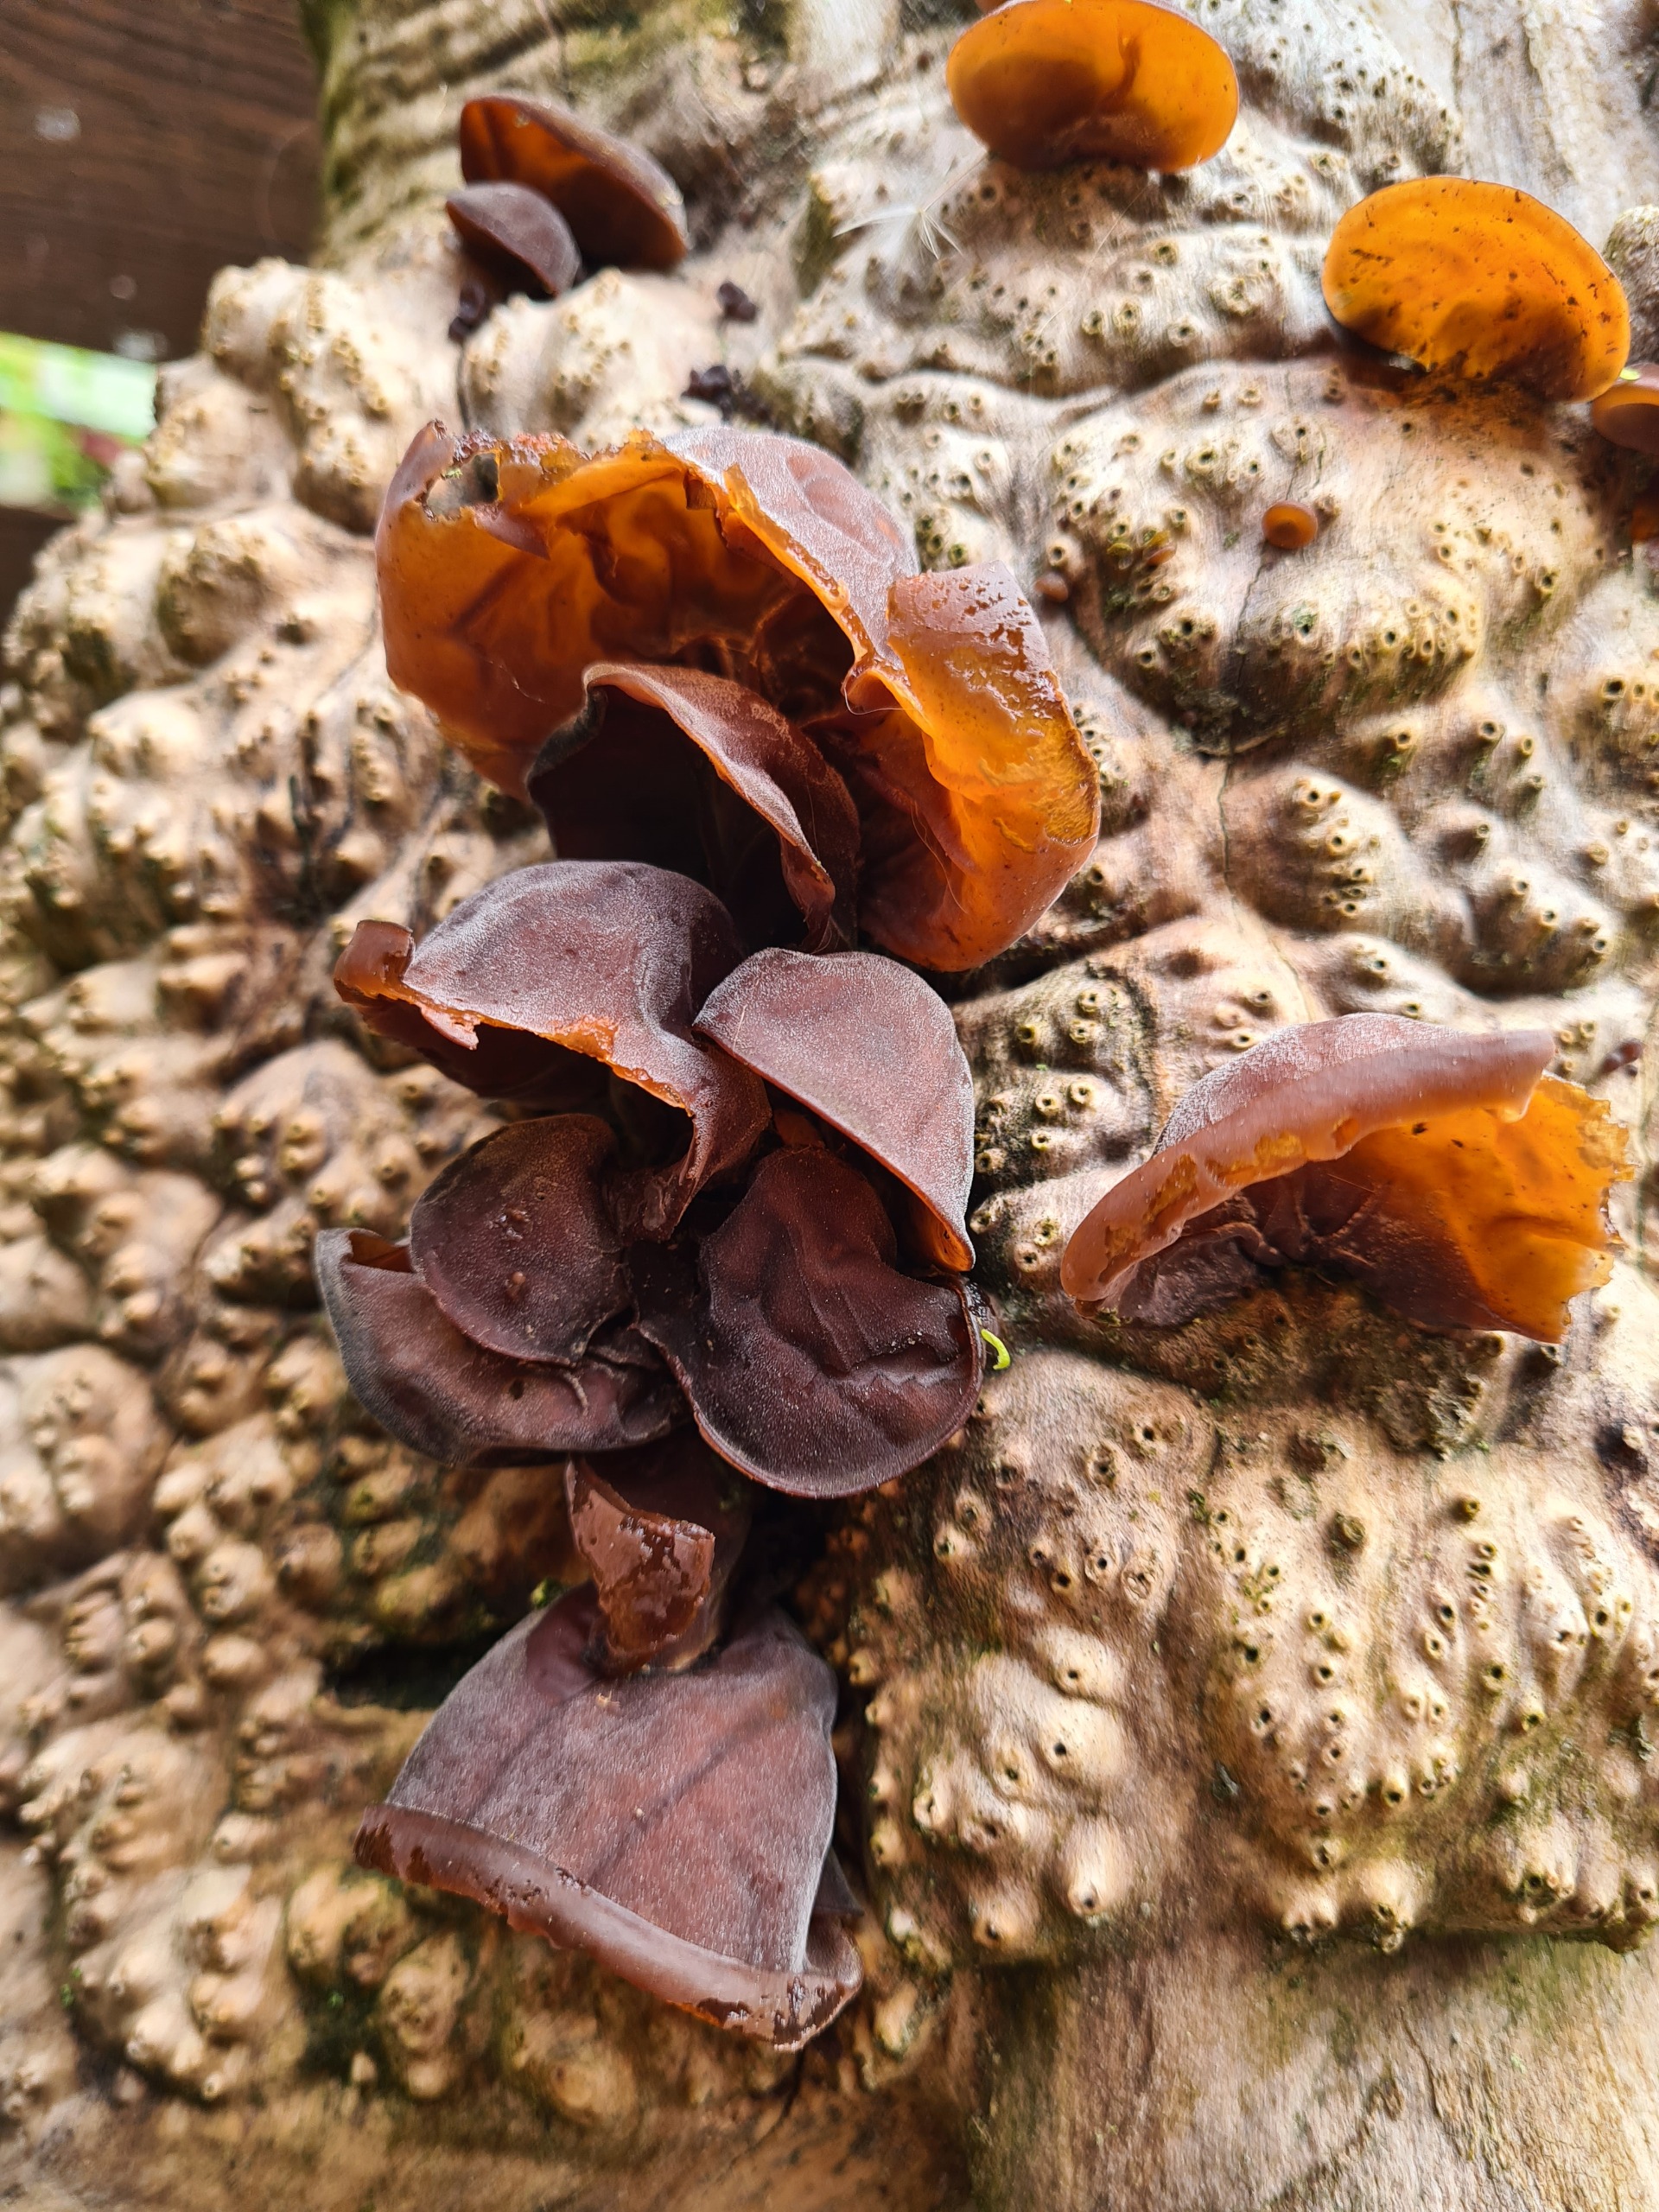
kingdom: Fungi
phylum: Basidiomycota
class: Agaricomycetes
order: Auriculariales
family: Auriculariaceae
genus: Auricularia
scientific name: Auricularia auricula-judae
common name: Almindelig judasøre
